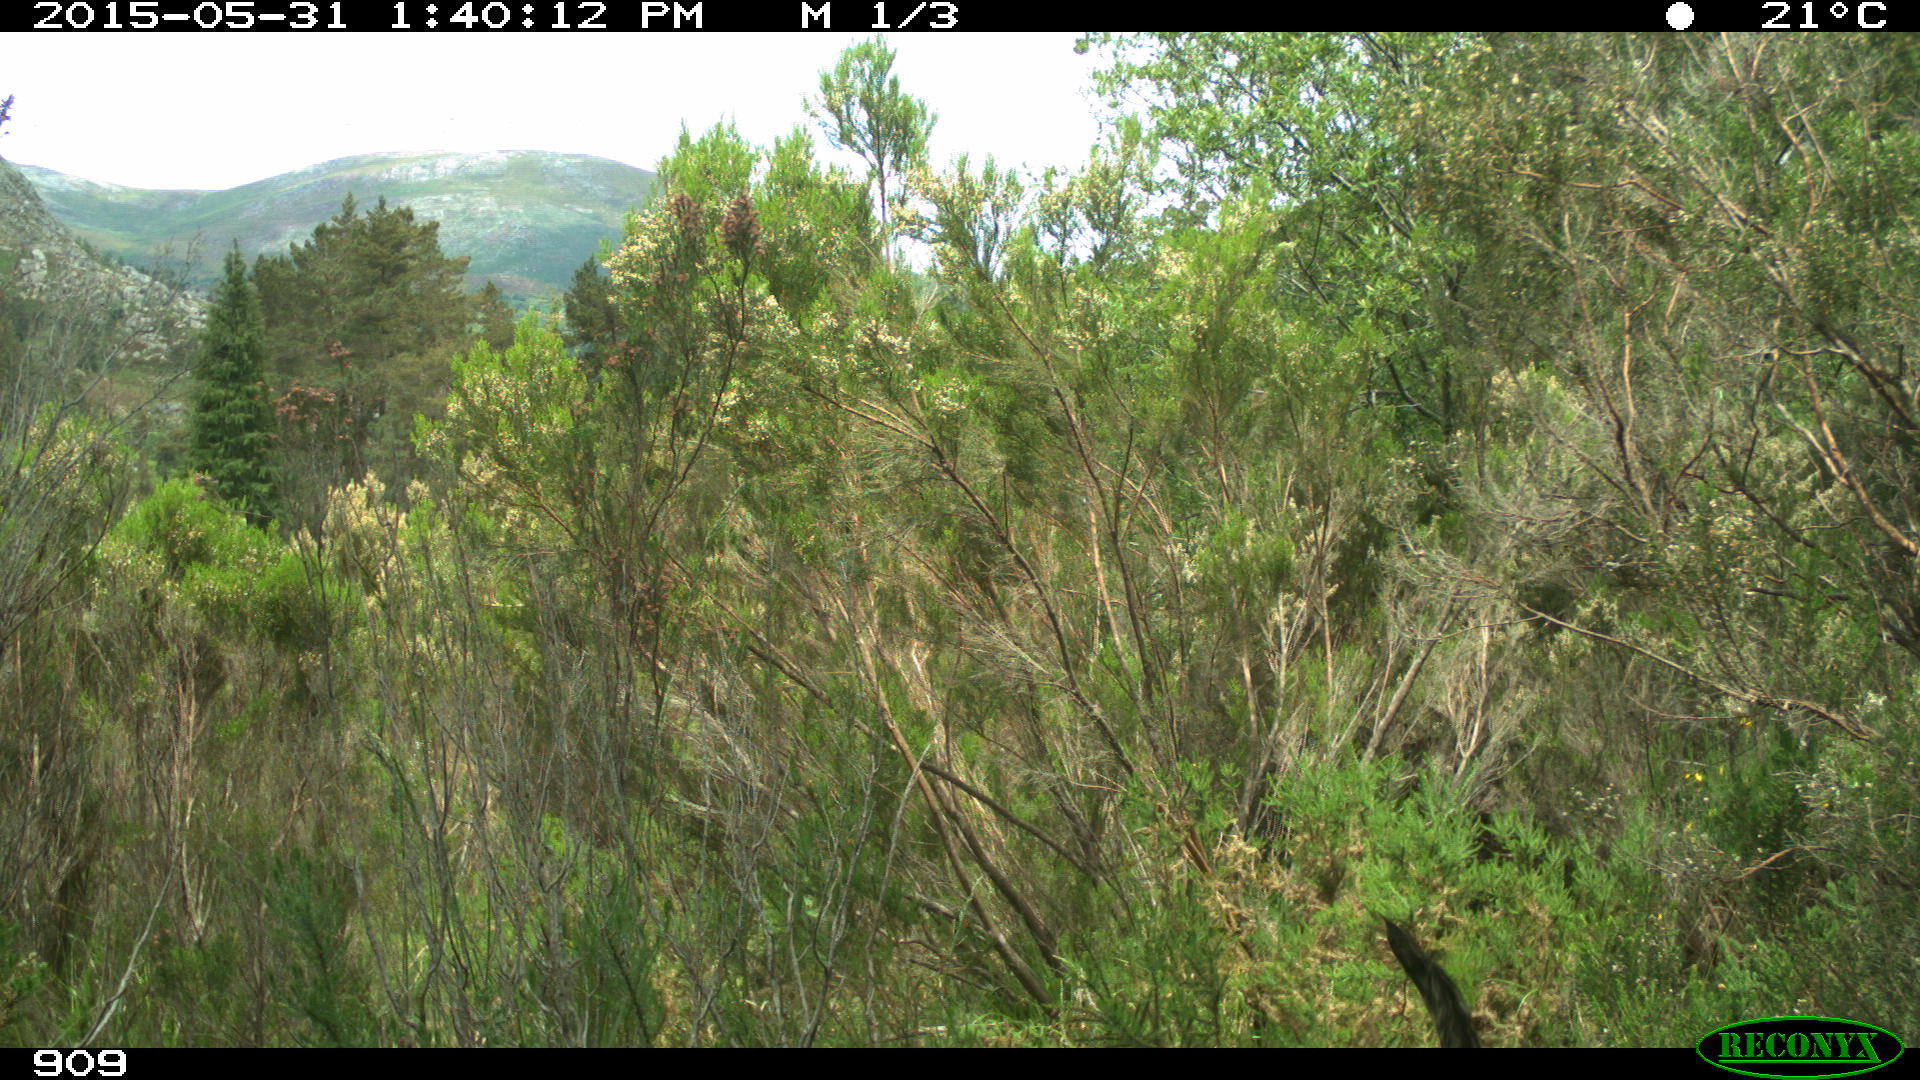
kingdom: Animalia
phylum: Chordata
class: Mammalia
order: Carnivora
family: Canidae
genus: Canis
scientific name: Canis lupus
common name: Gray wolf
